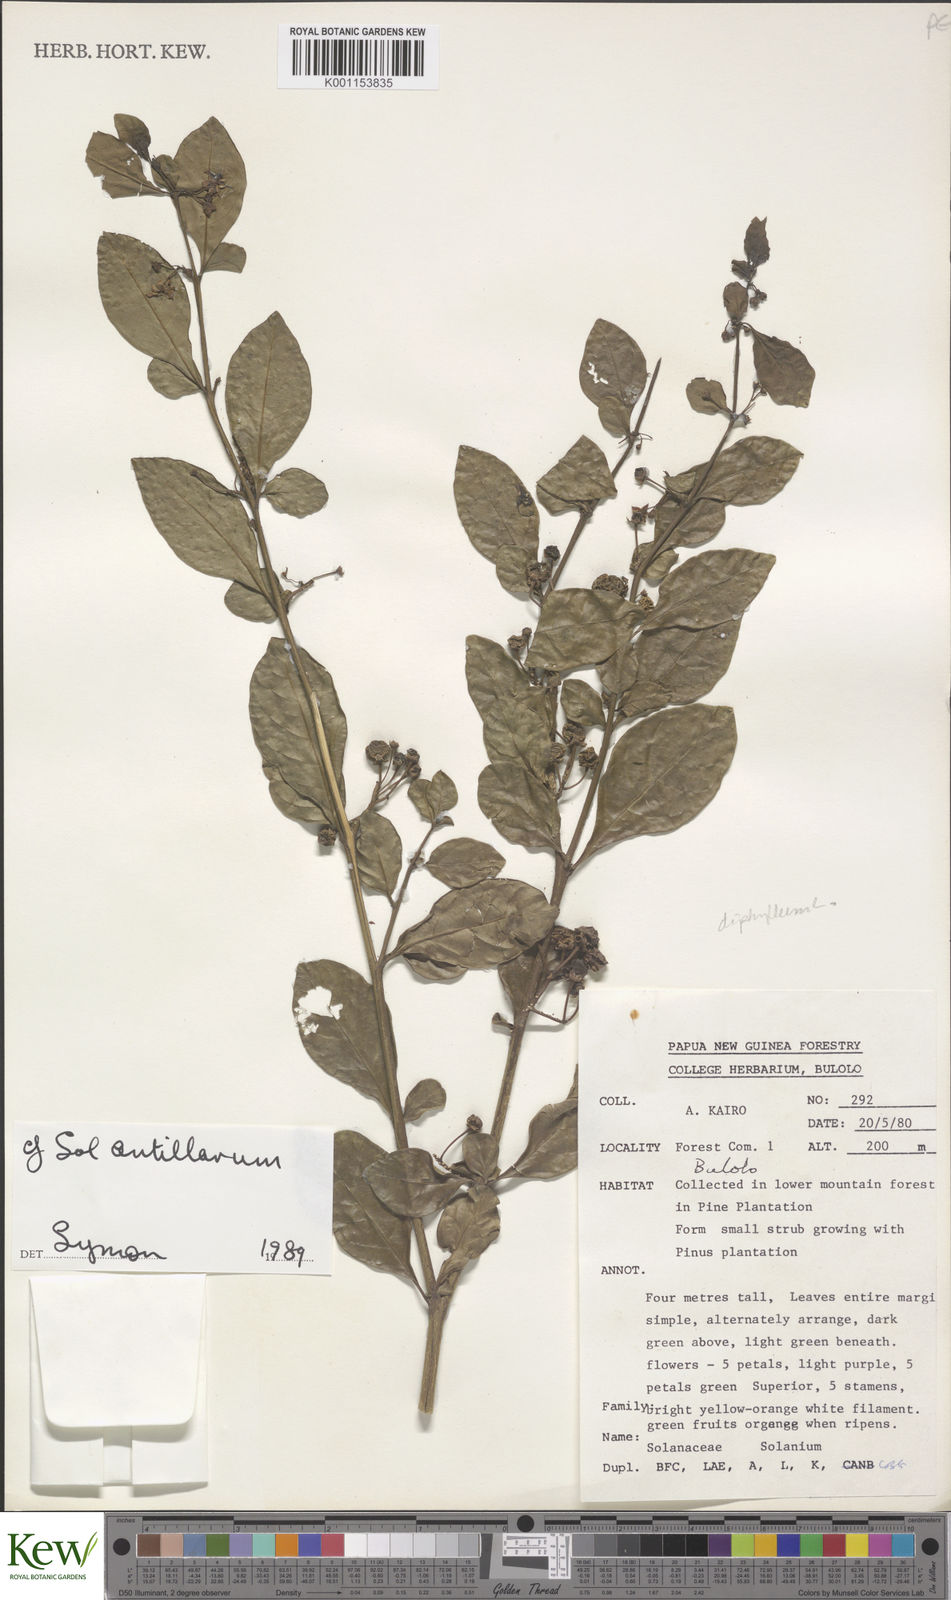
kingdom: Plantae
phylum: Tracheophyta
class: Magnoliopsida
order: Solanales
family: Solanaceae
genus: Solanum
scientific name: Solanum
